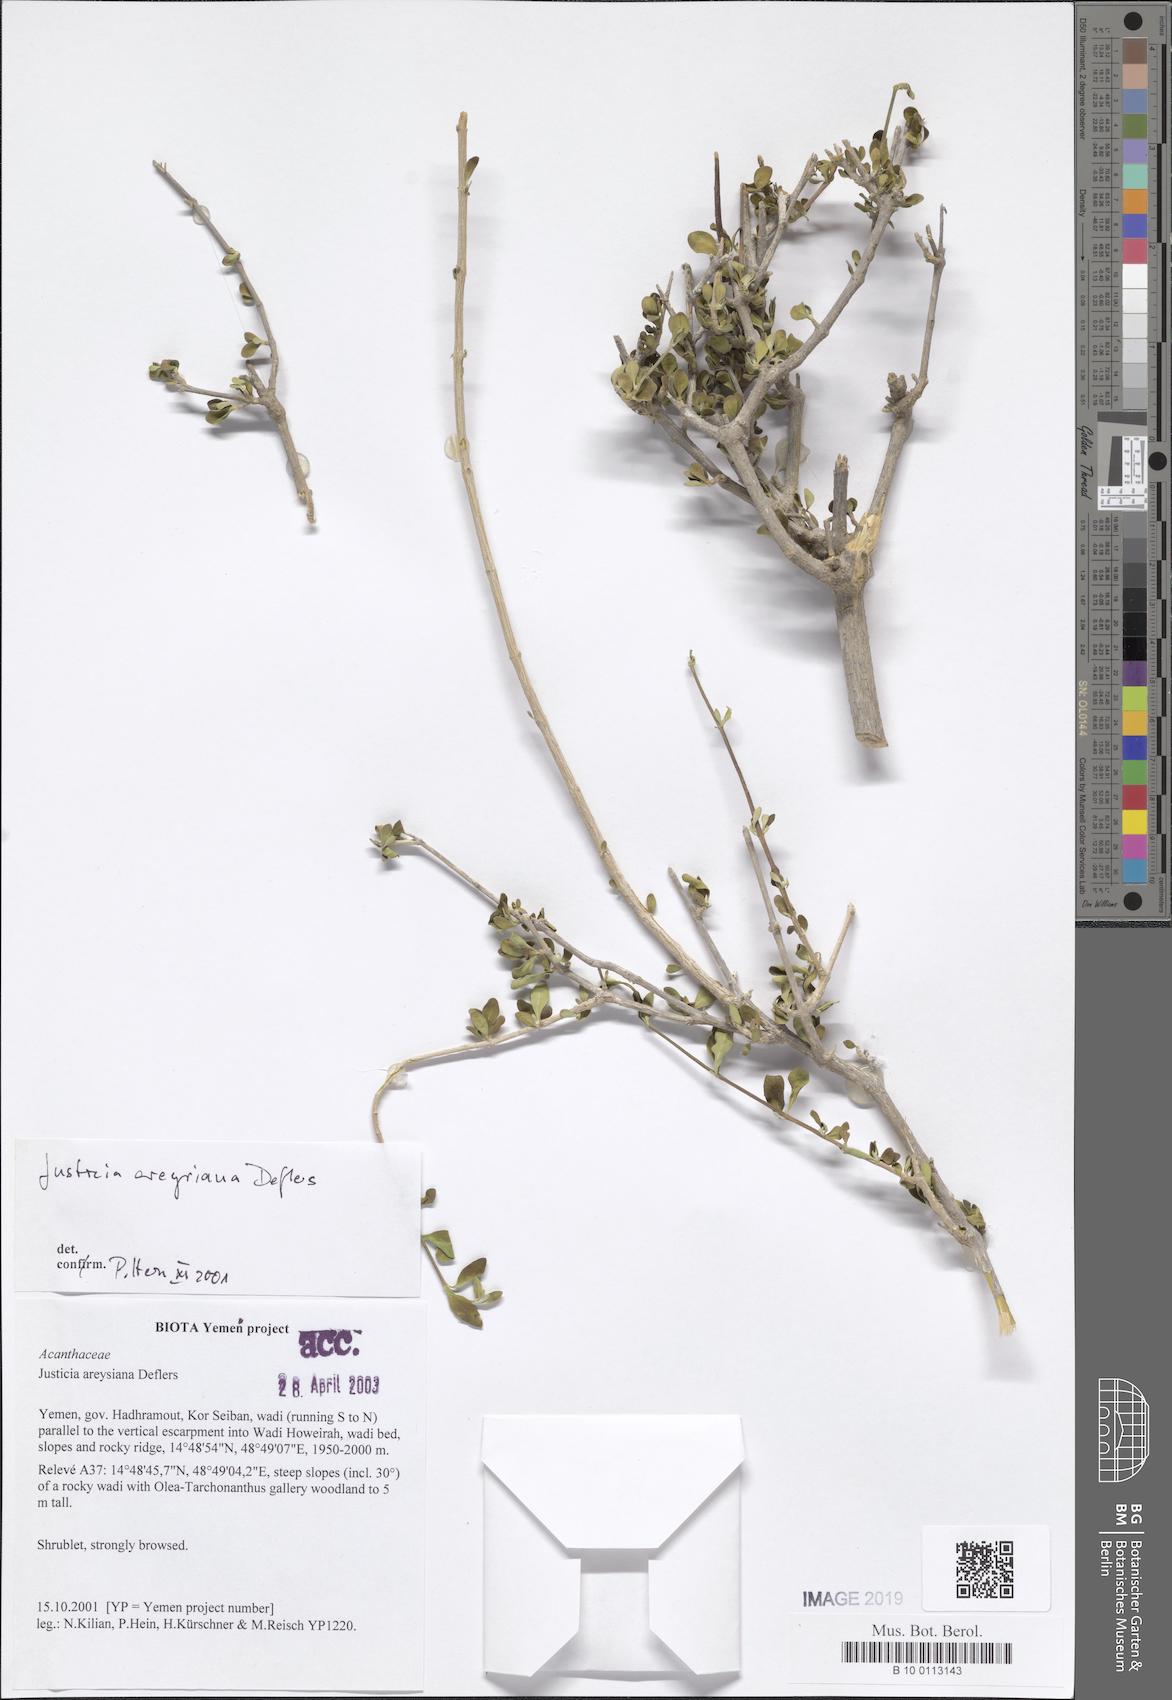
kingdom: Plantae
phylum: Tracheophyta
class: Magnoliopsida
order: Lamiales
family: Acanthaceae
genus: Justicia
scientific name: Justicia areysiana
